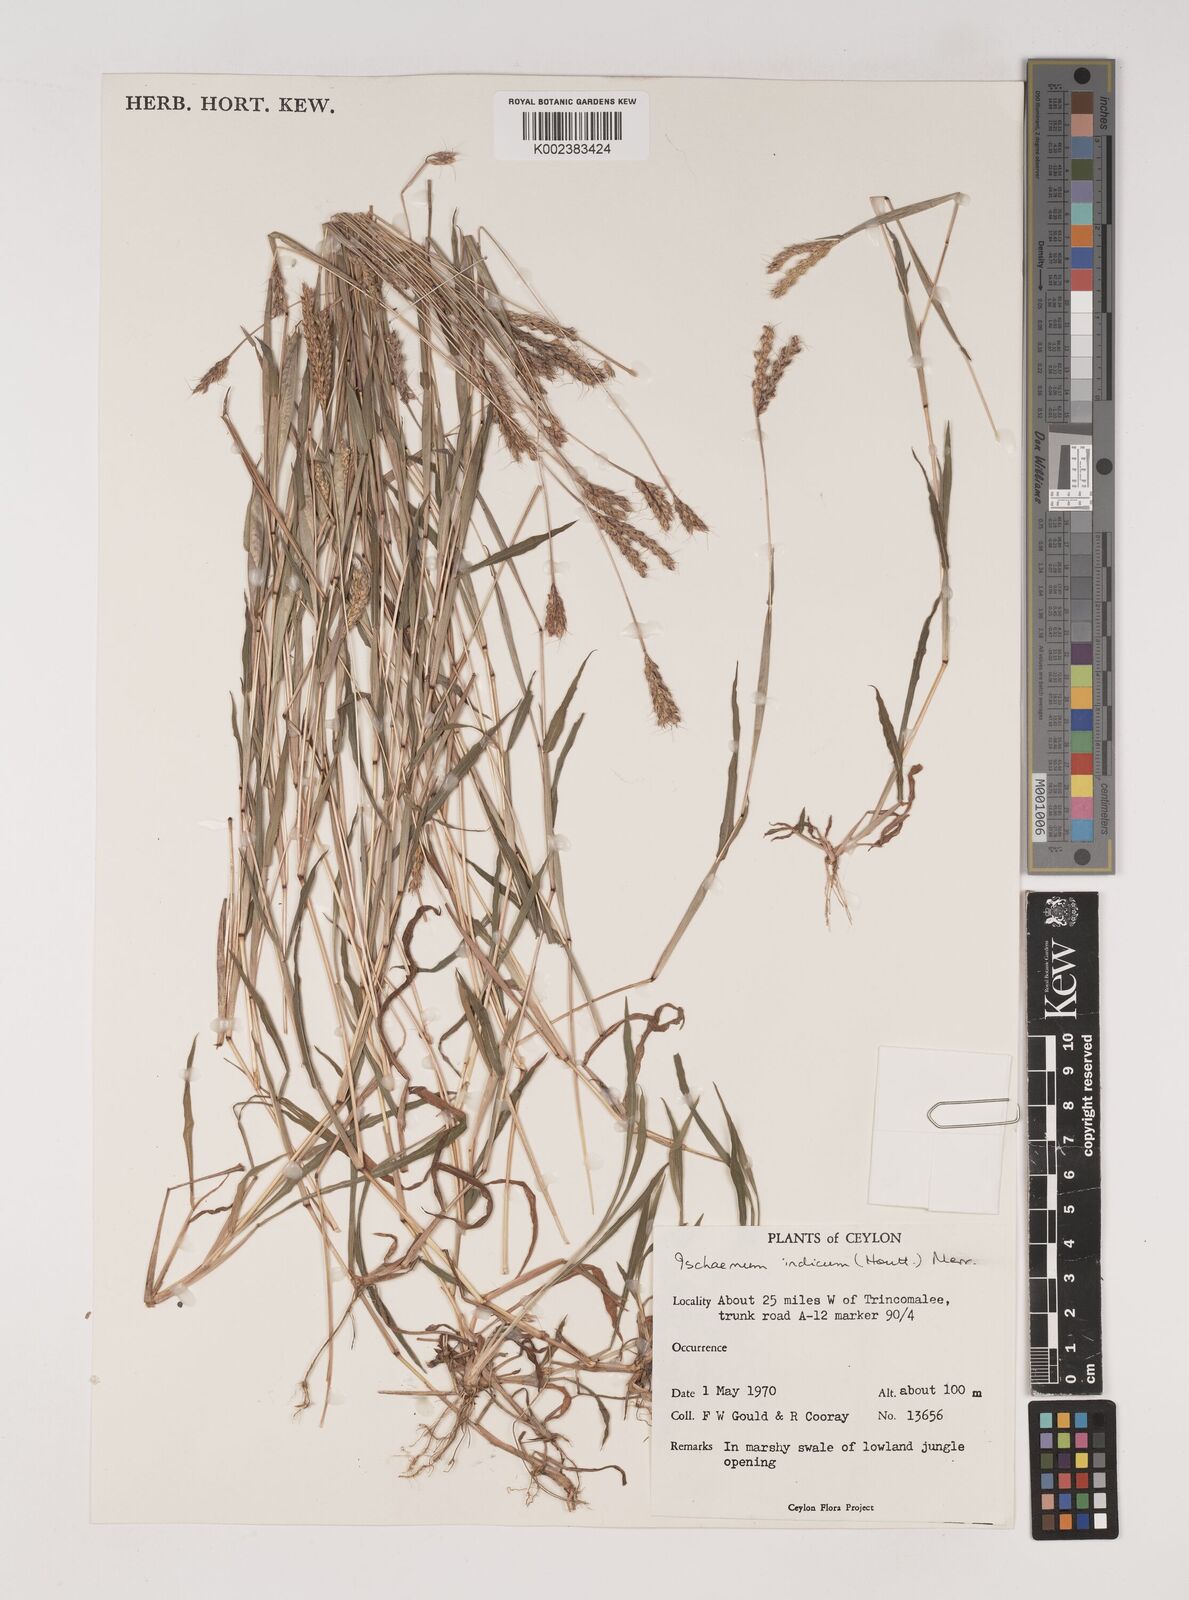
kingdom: Plantae
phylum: Tracheophyta
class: Liliopsida
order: Poales
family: Poaceae
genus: Polytrias
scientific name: Polytrias indica
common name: Indian murainagrass
